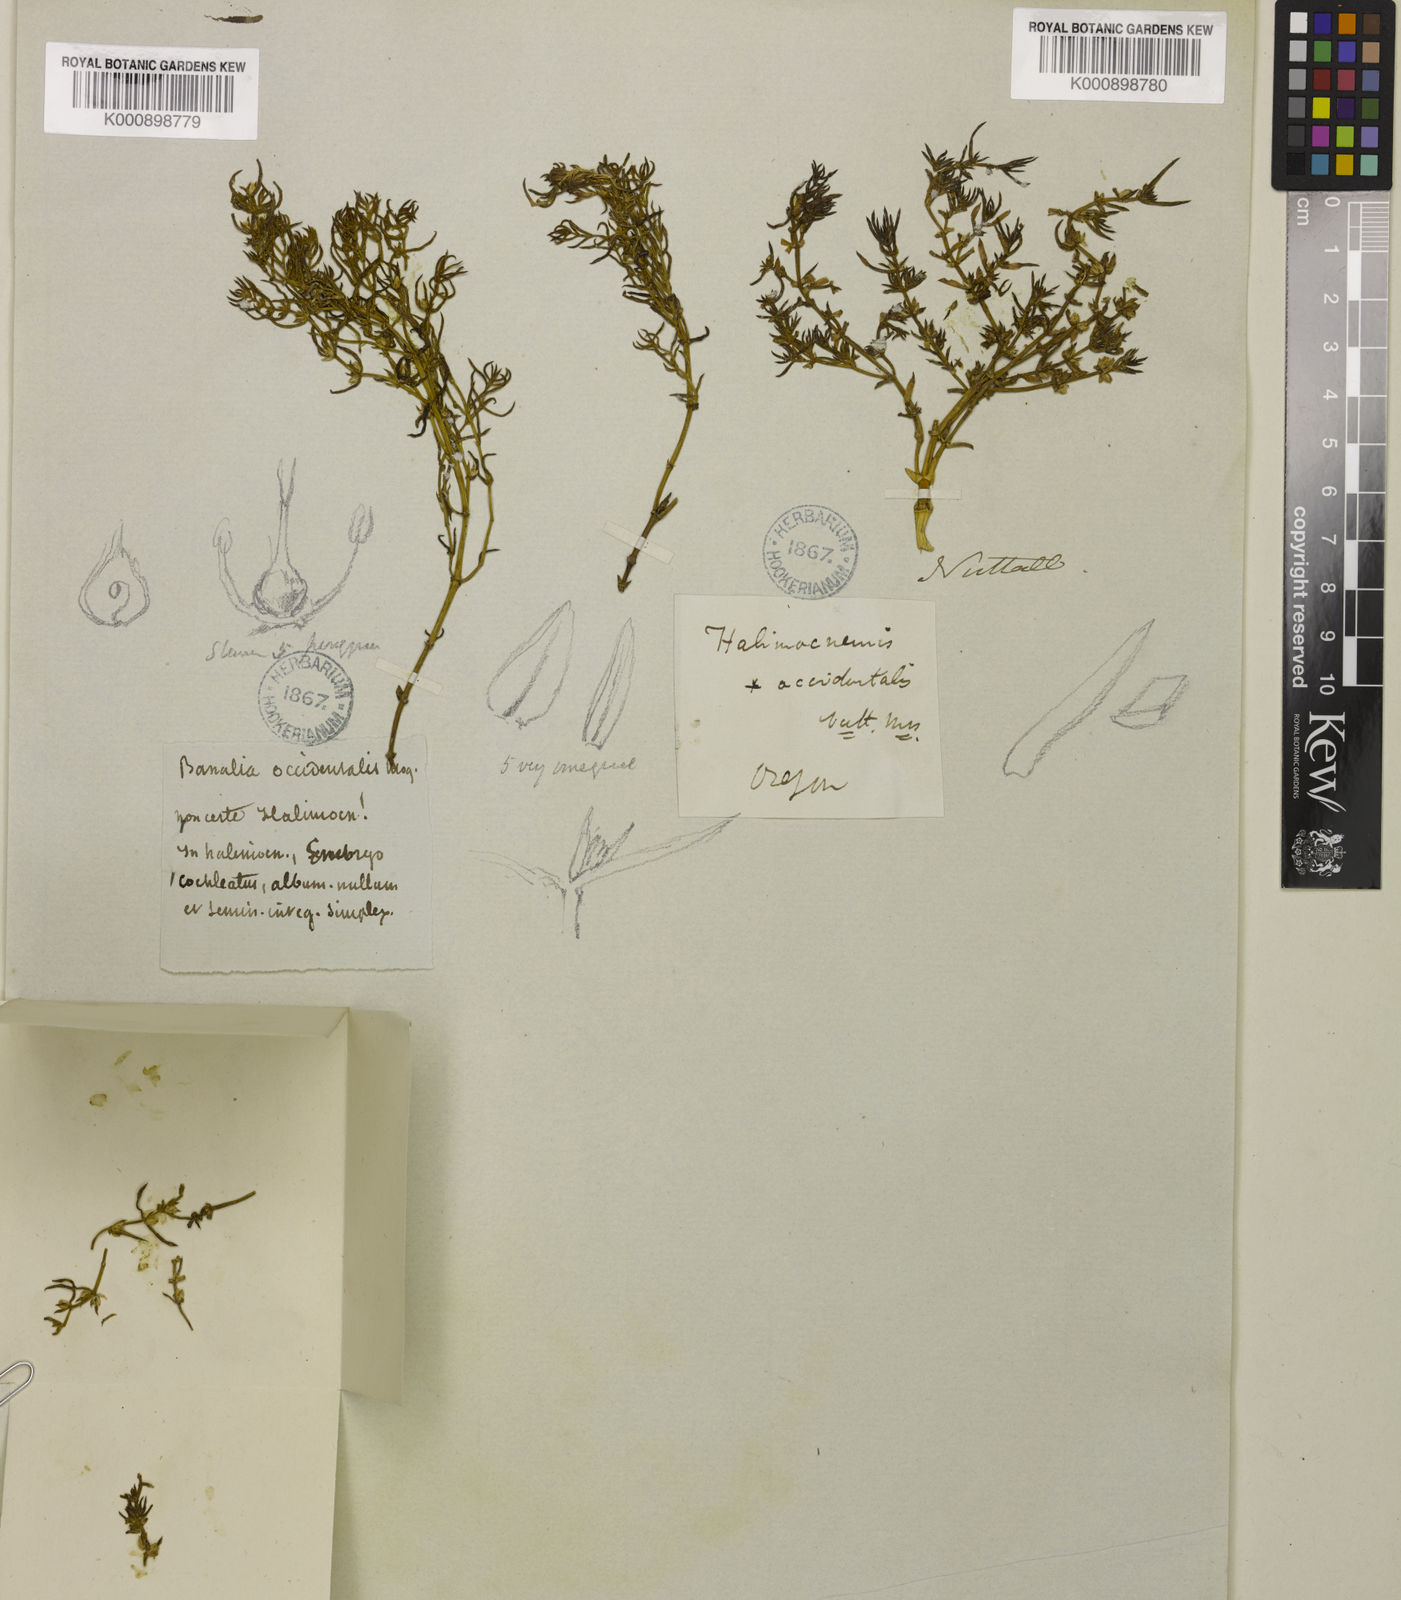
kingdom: Plantae
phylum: Tracheophyta
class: Magnoliopsida
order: Caryophyllales
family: Amaranthaceae
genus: Nitrophila
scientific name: Nitrophila occidentalis
